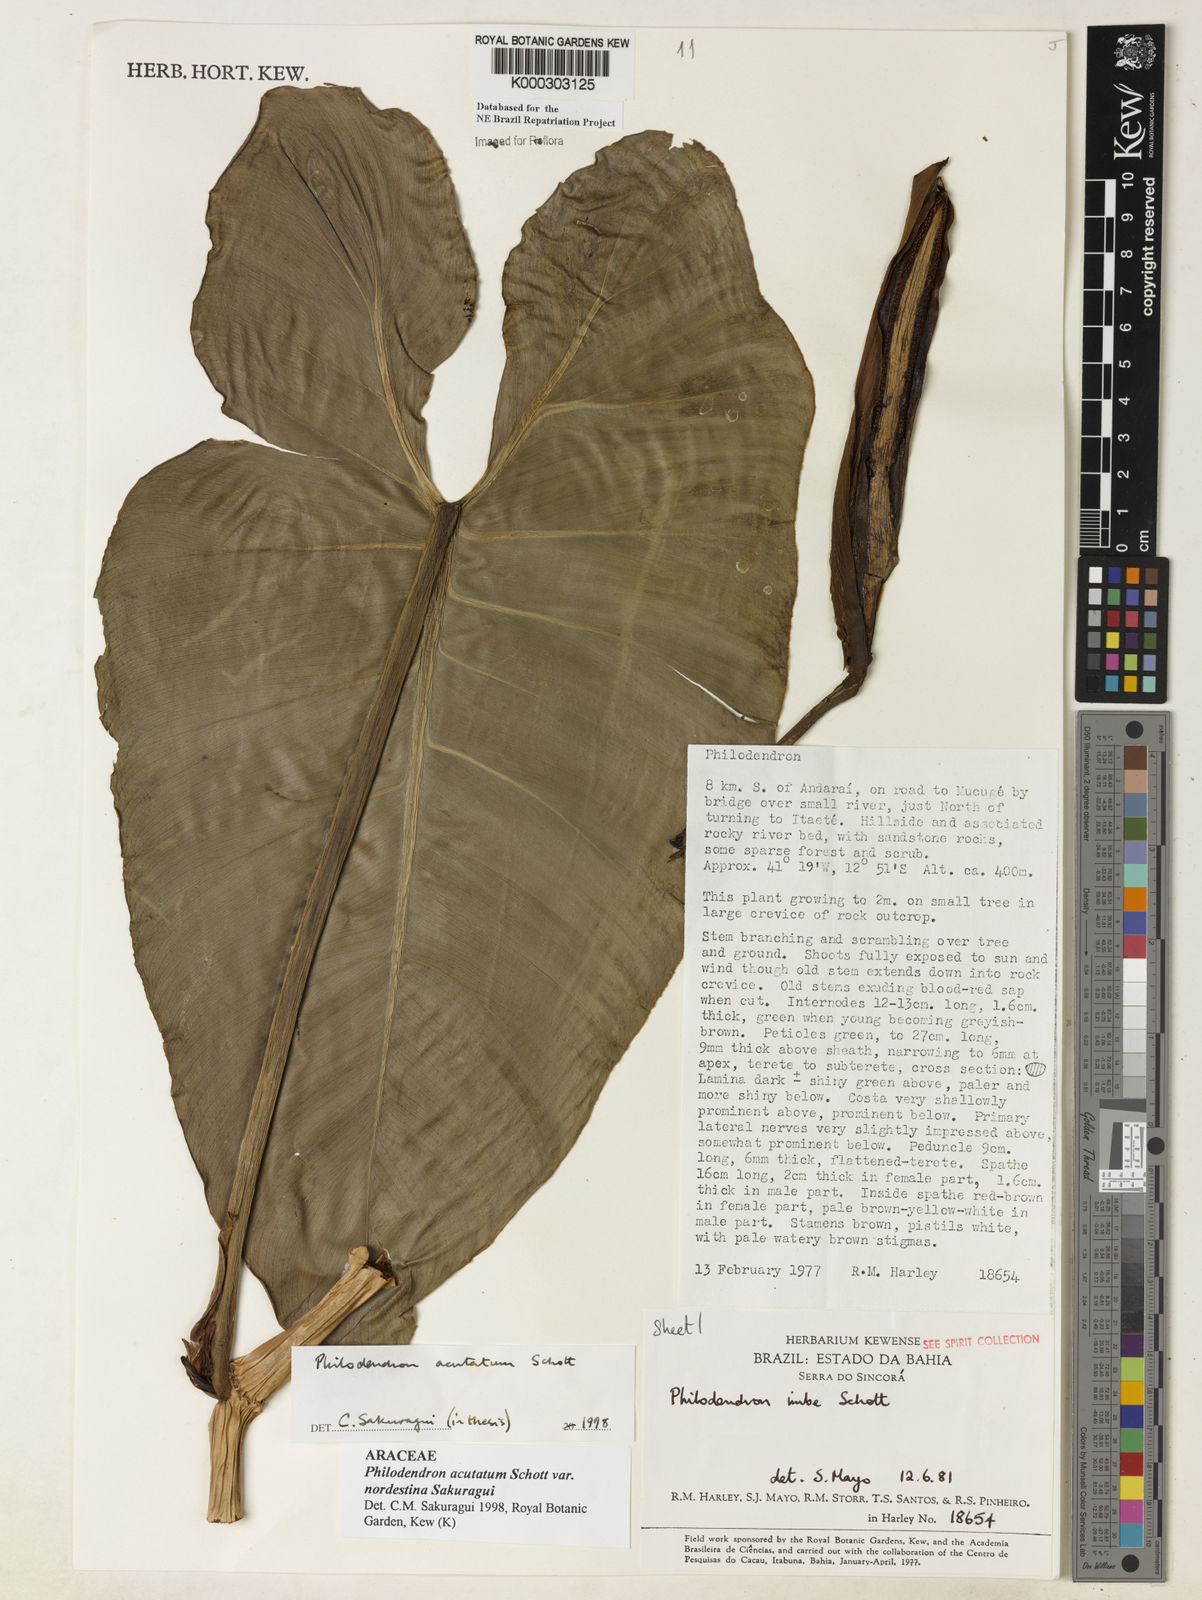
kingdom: Plantae
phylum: Tracheophyta
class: Liliopsida
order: Alismatales
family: Araceae
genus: Philodendron
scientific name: Philodendron quinquenervium
